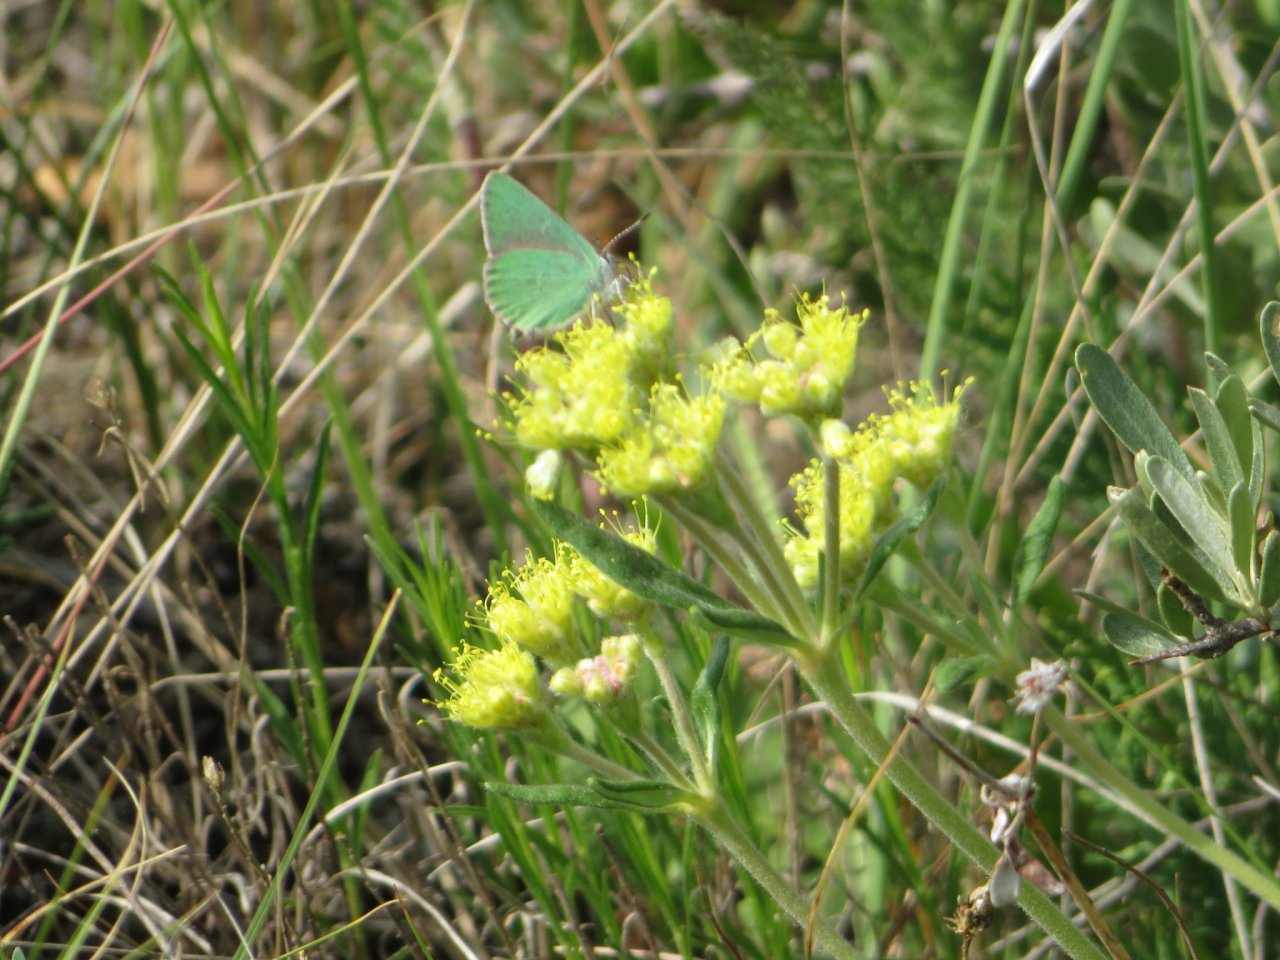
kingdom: Animalia
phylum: Arthropoda
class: Insecta
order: Lepidoptera
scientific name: Lepidoptera
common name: Butterflies
